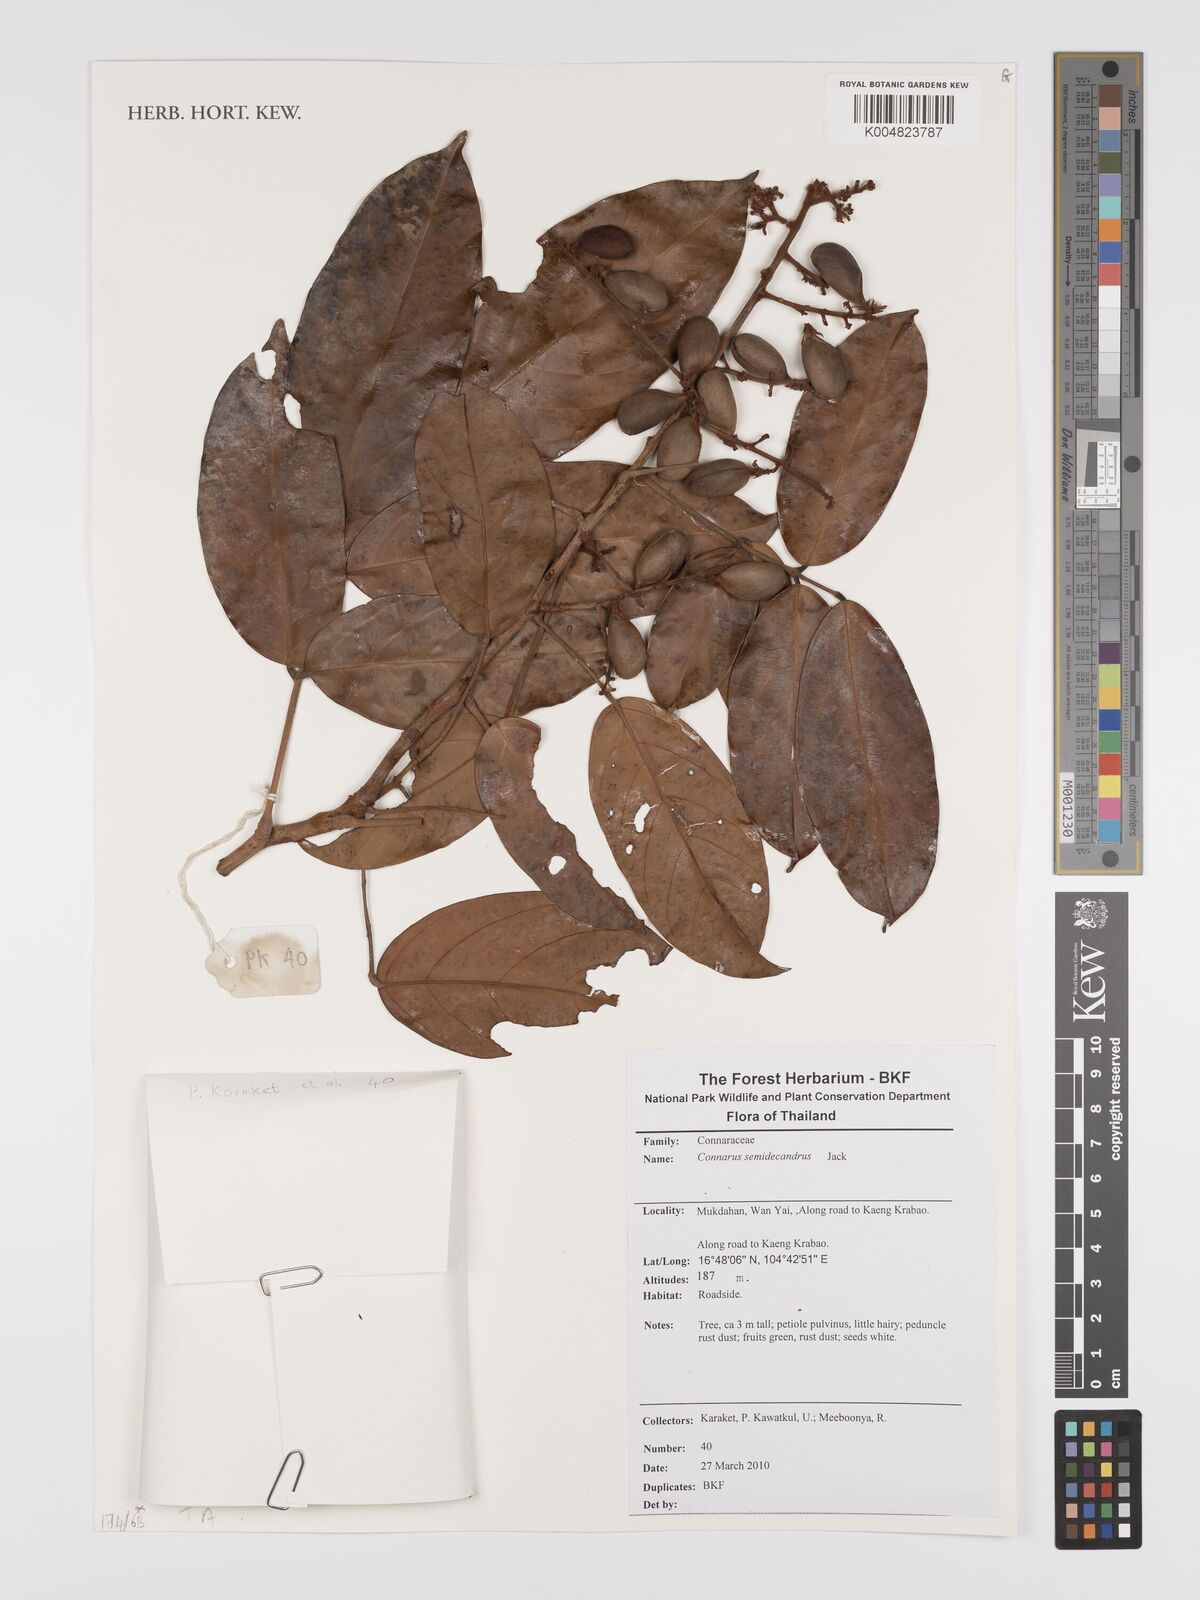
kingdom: Plantae
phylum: Tracheophyta
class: Magnoliopsida
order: Oxalidales
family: Connaraceae
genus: Connarus
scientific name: Connarus semidecandrus
